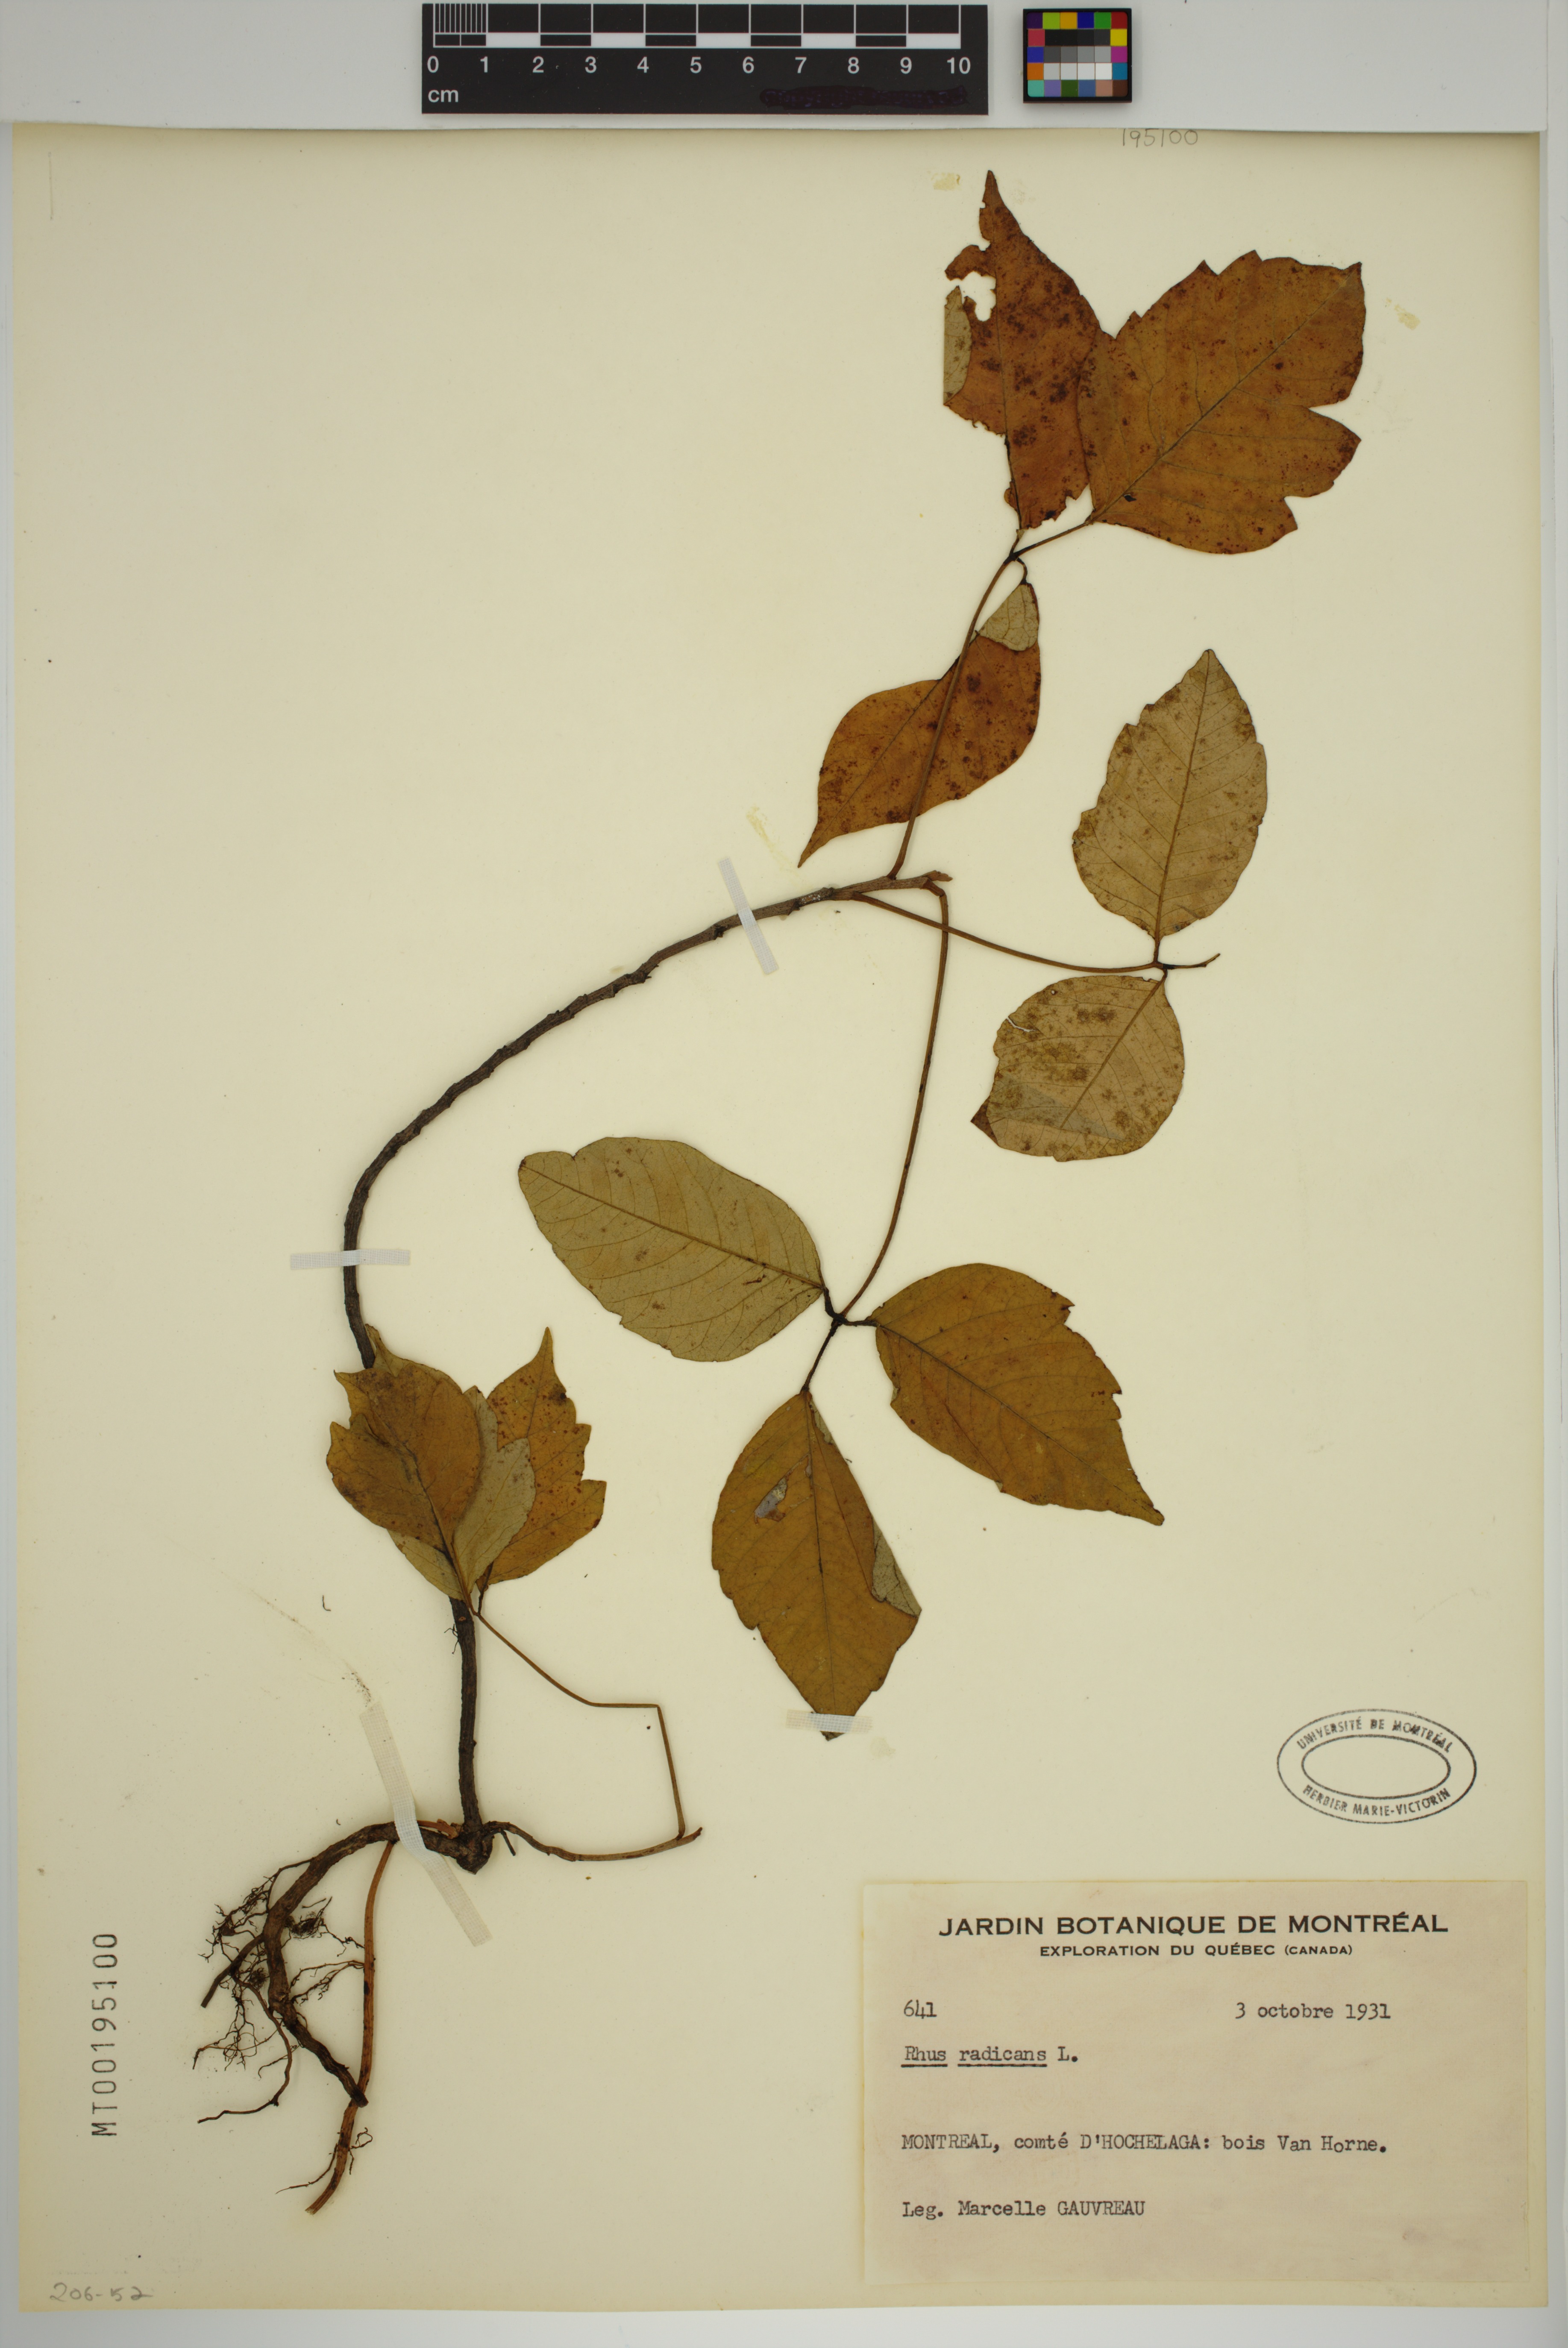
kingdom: Plantae
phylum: Tracheophyta
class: Magnoliopsida
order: Sapindales
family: Anacardiaceae
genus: Toxicodendron
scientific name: Toxicodendron radicans
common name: Poison ivy
